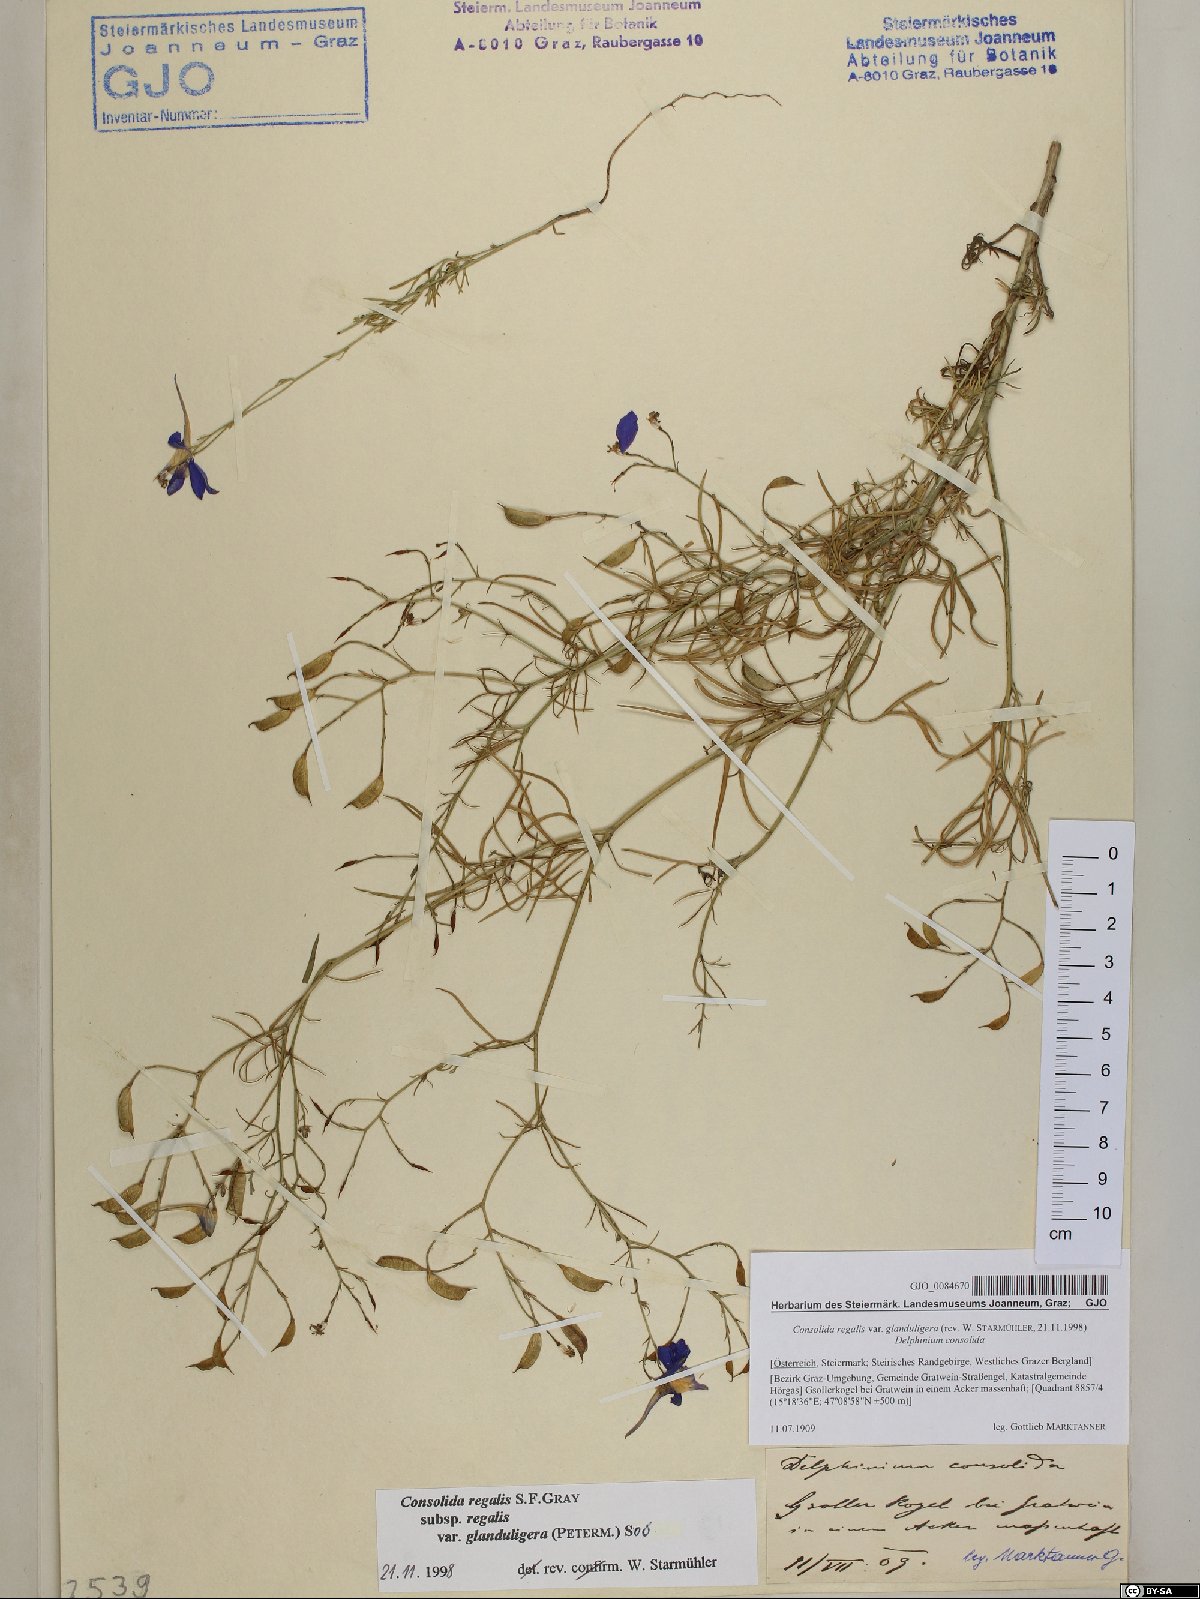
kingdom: Plantae
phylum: Tracheophyta
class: Magnoliopsida
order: Ranunculales
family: Ranunculaceae
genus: Delphinium
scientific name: Delphinium consolida
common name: Branching larkspur
